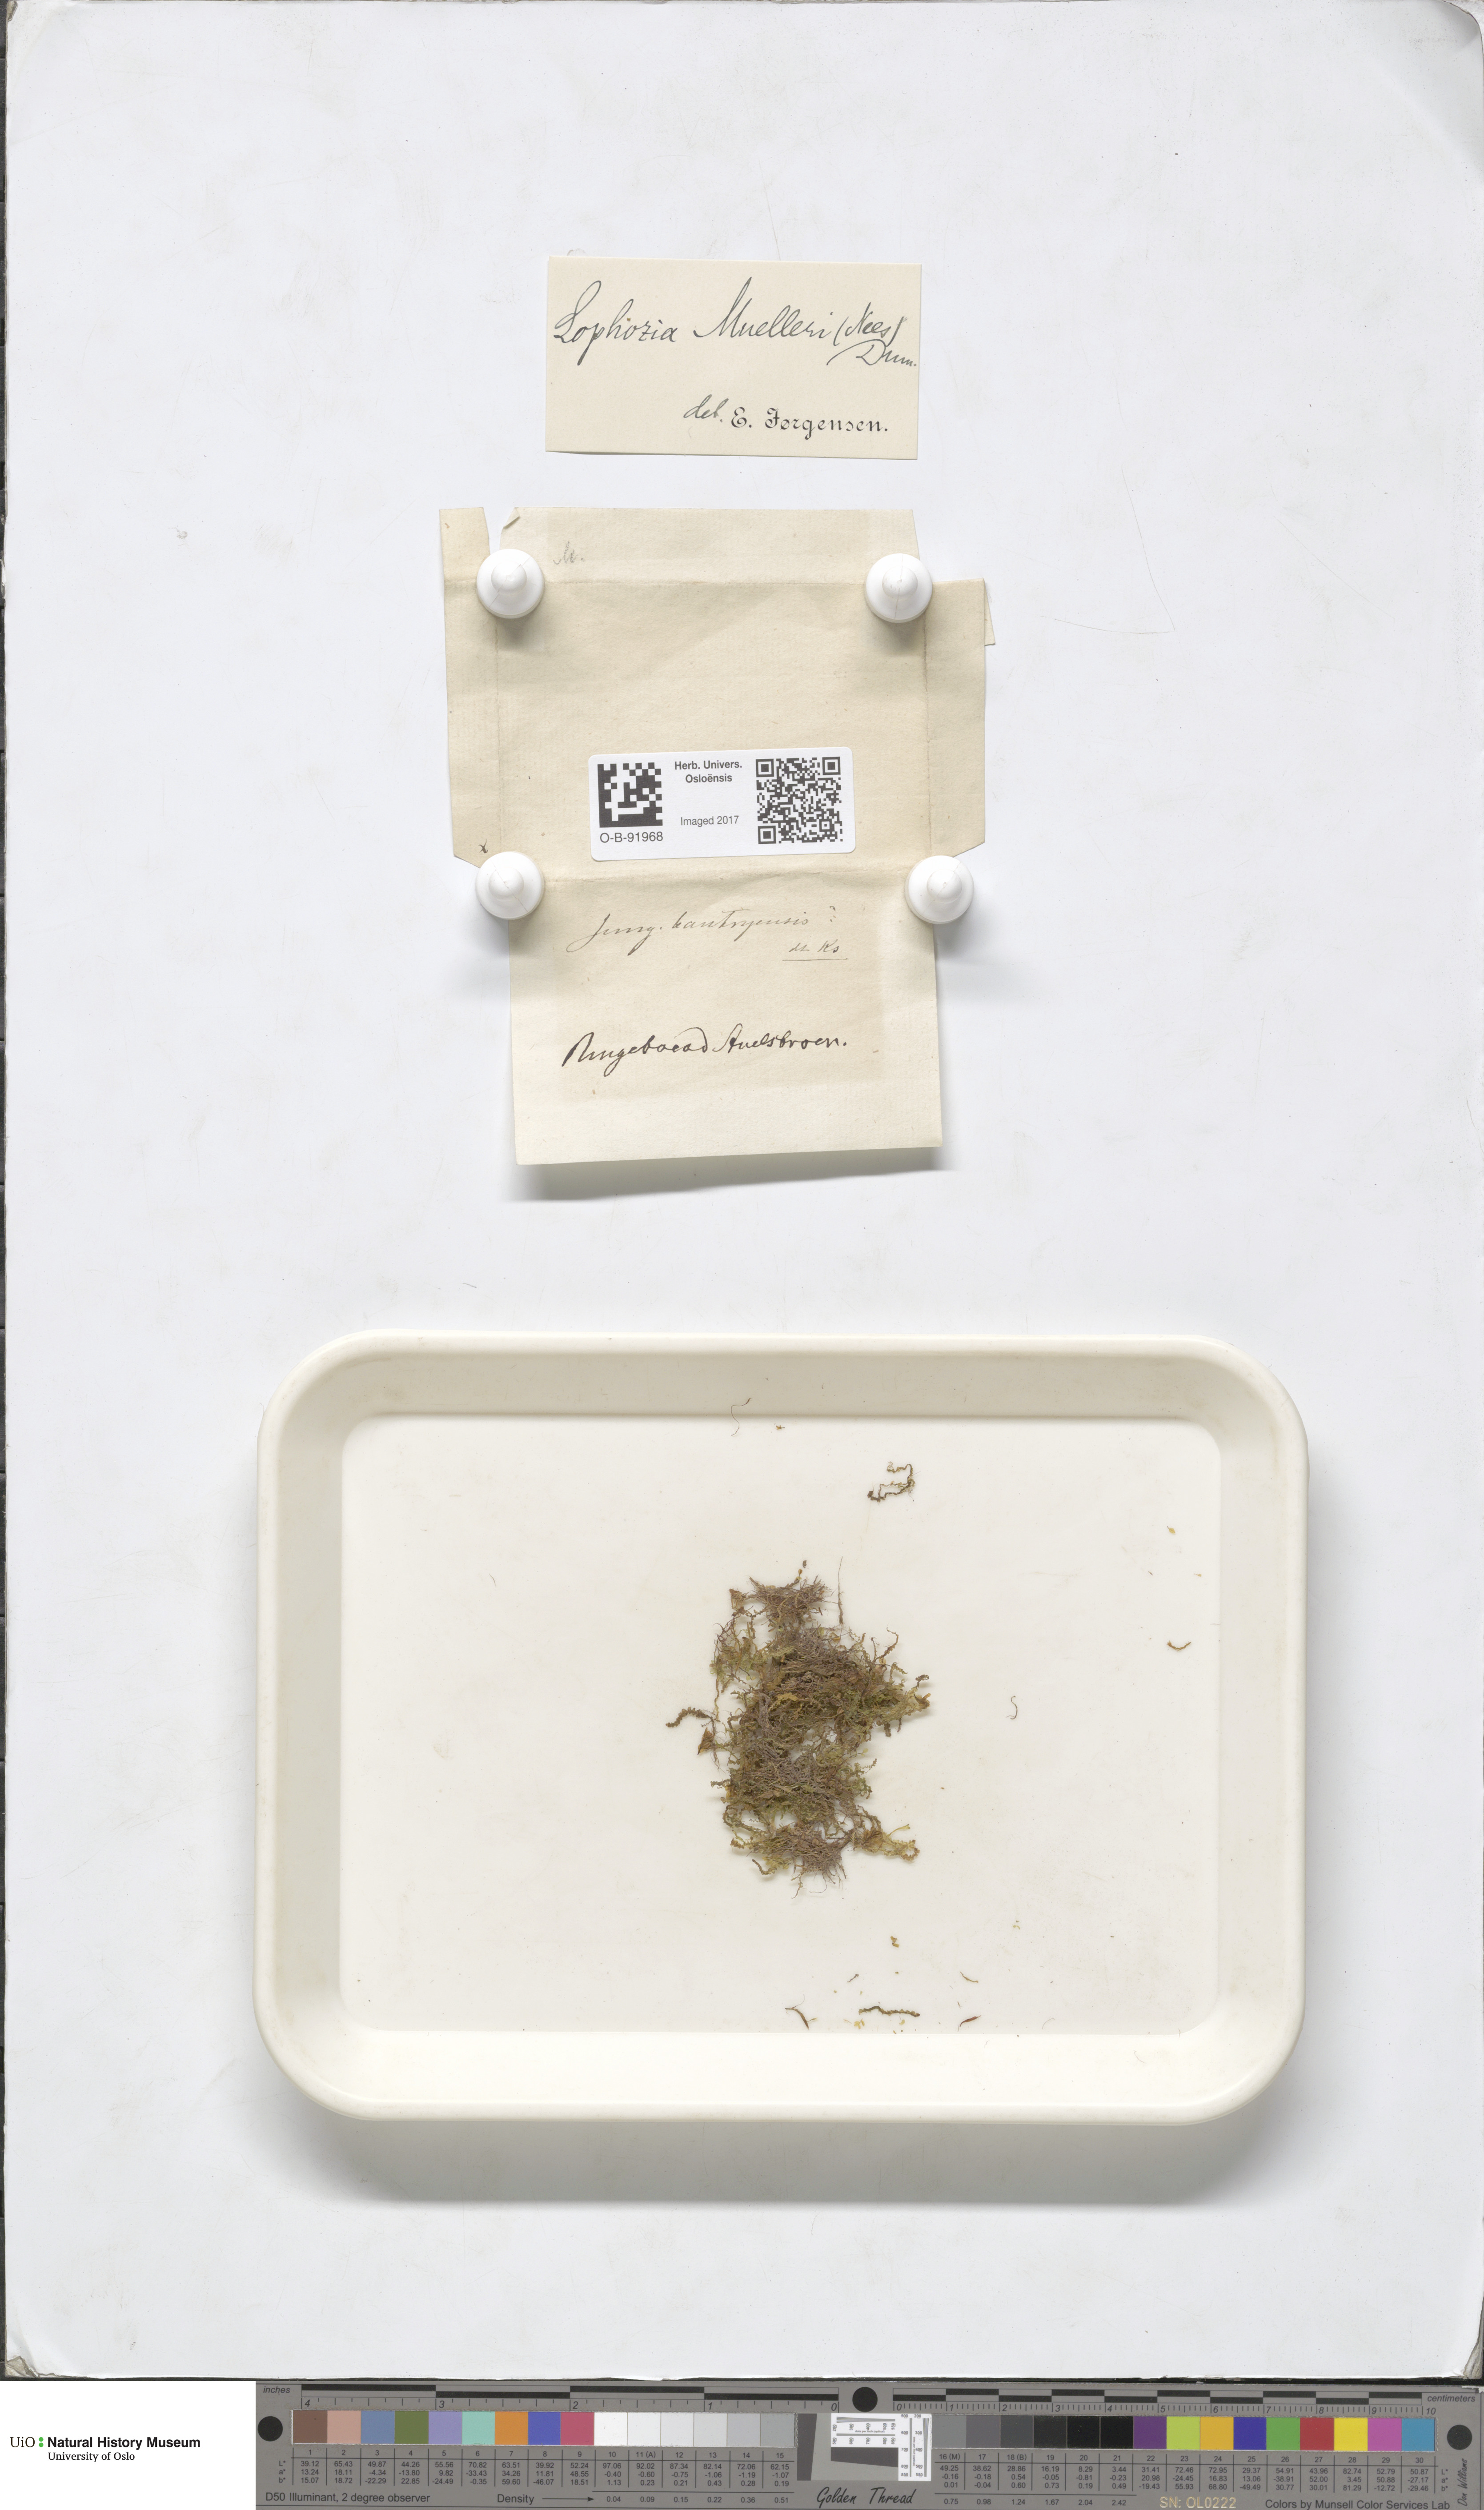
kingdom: Plantae
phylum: Marchantiophyta
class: Jungermanniopsida
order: Jungermanniales
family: Jungermanniaceae
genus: Mesoptychia
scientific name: Mesoptychia collaris
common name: Collared notchwort
